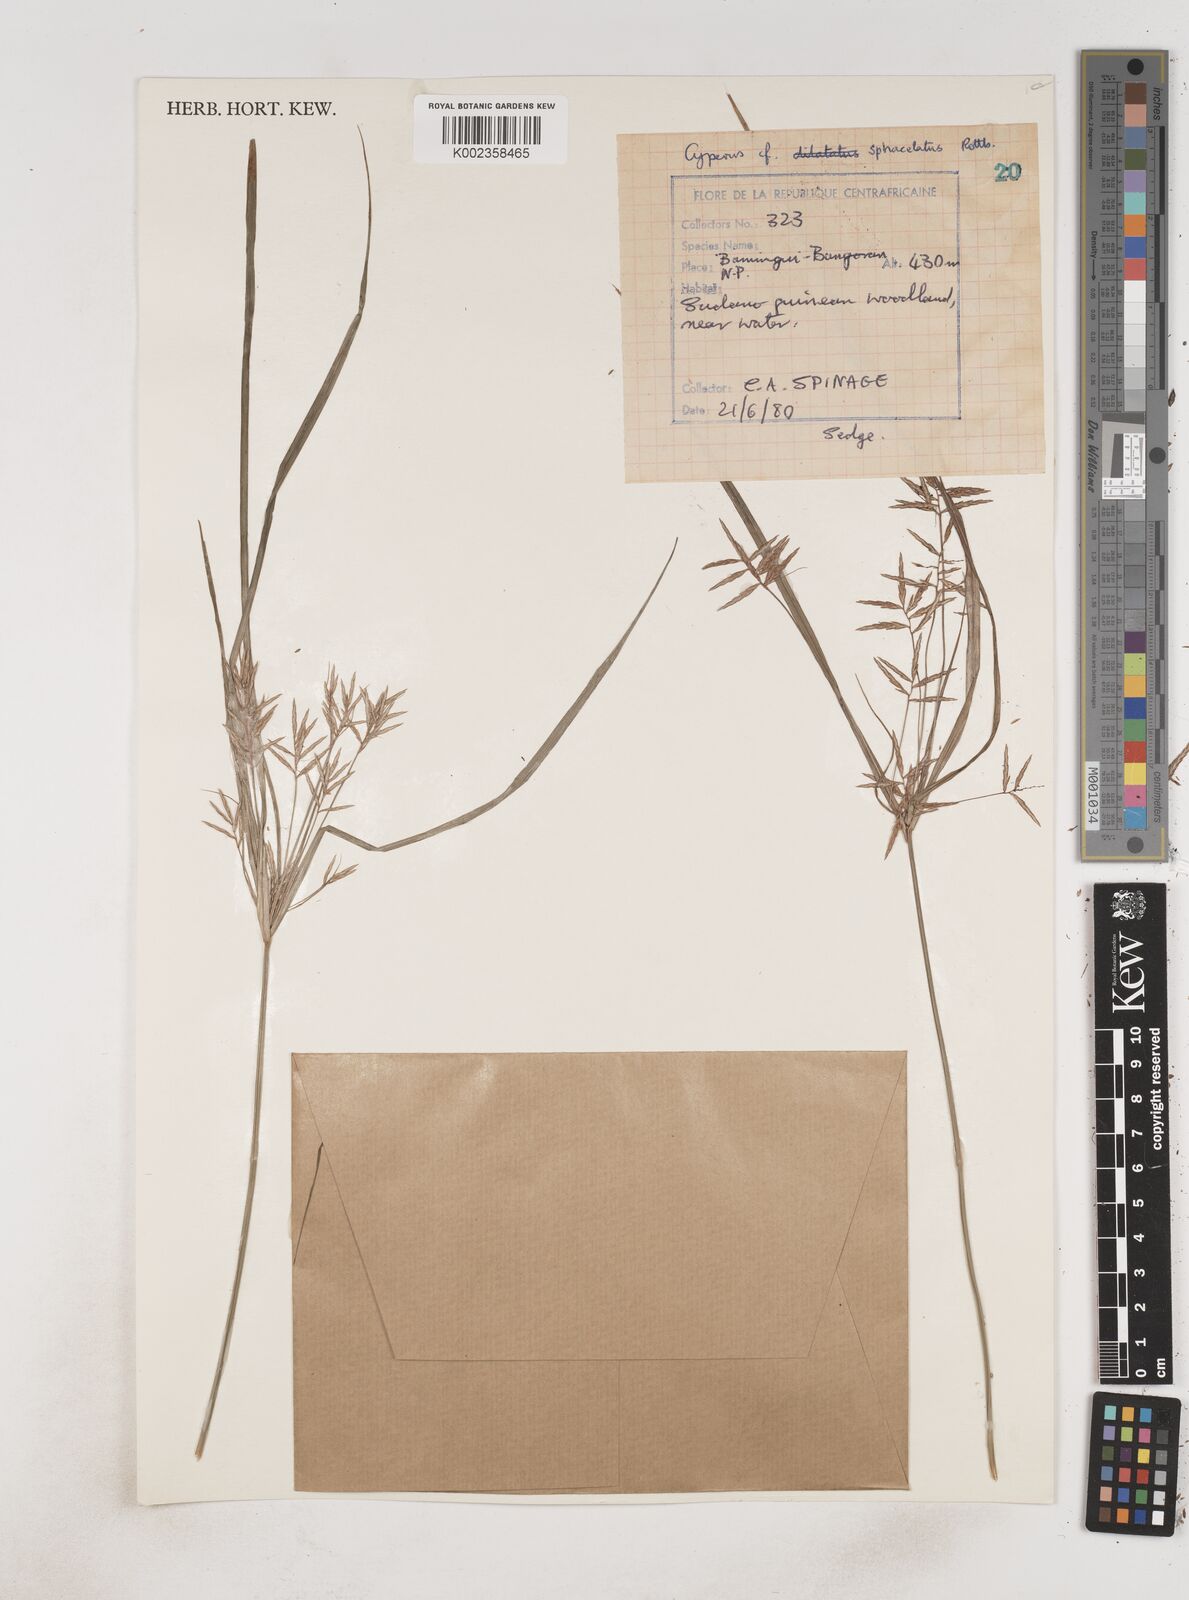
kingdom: Plantae
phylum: Tracheophyta
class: Liliopsida
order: Poales
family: Cyperaceae
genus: Cyperus
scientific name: Cyperus sphacelatus
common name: Roadside flatsedge
